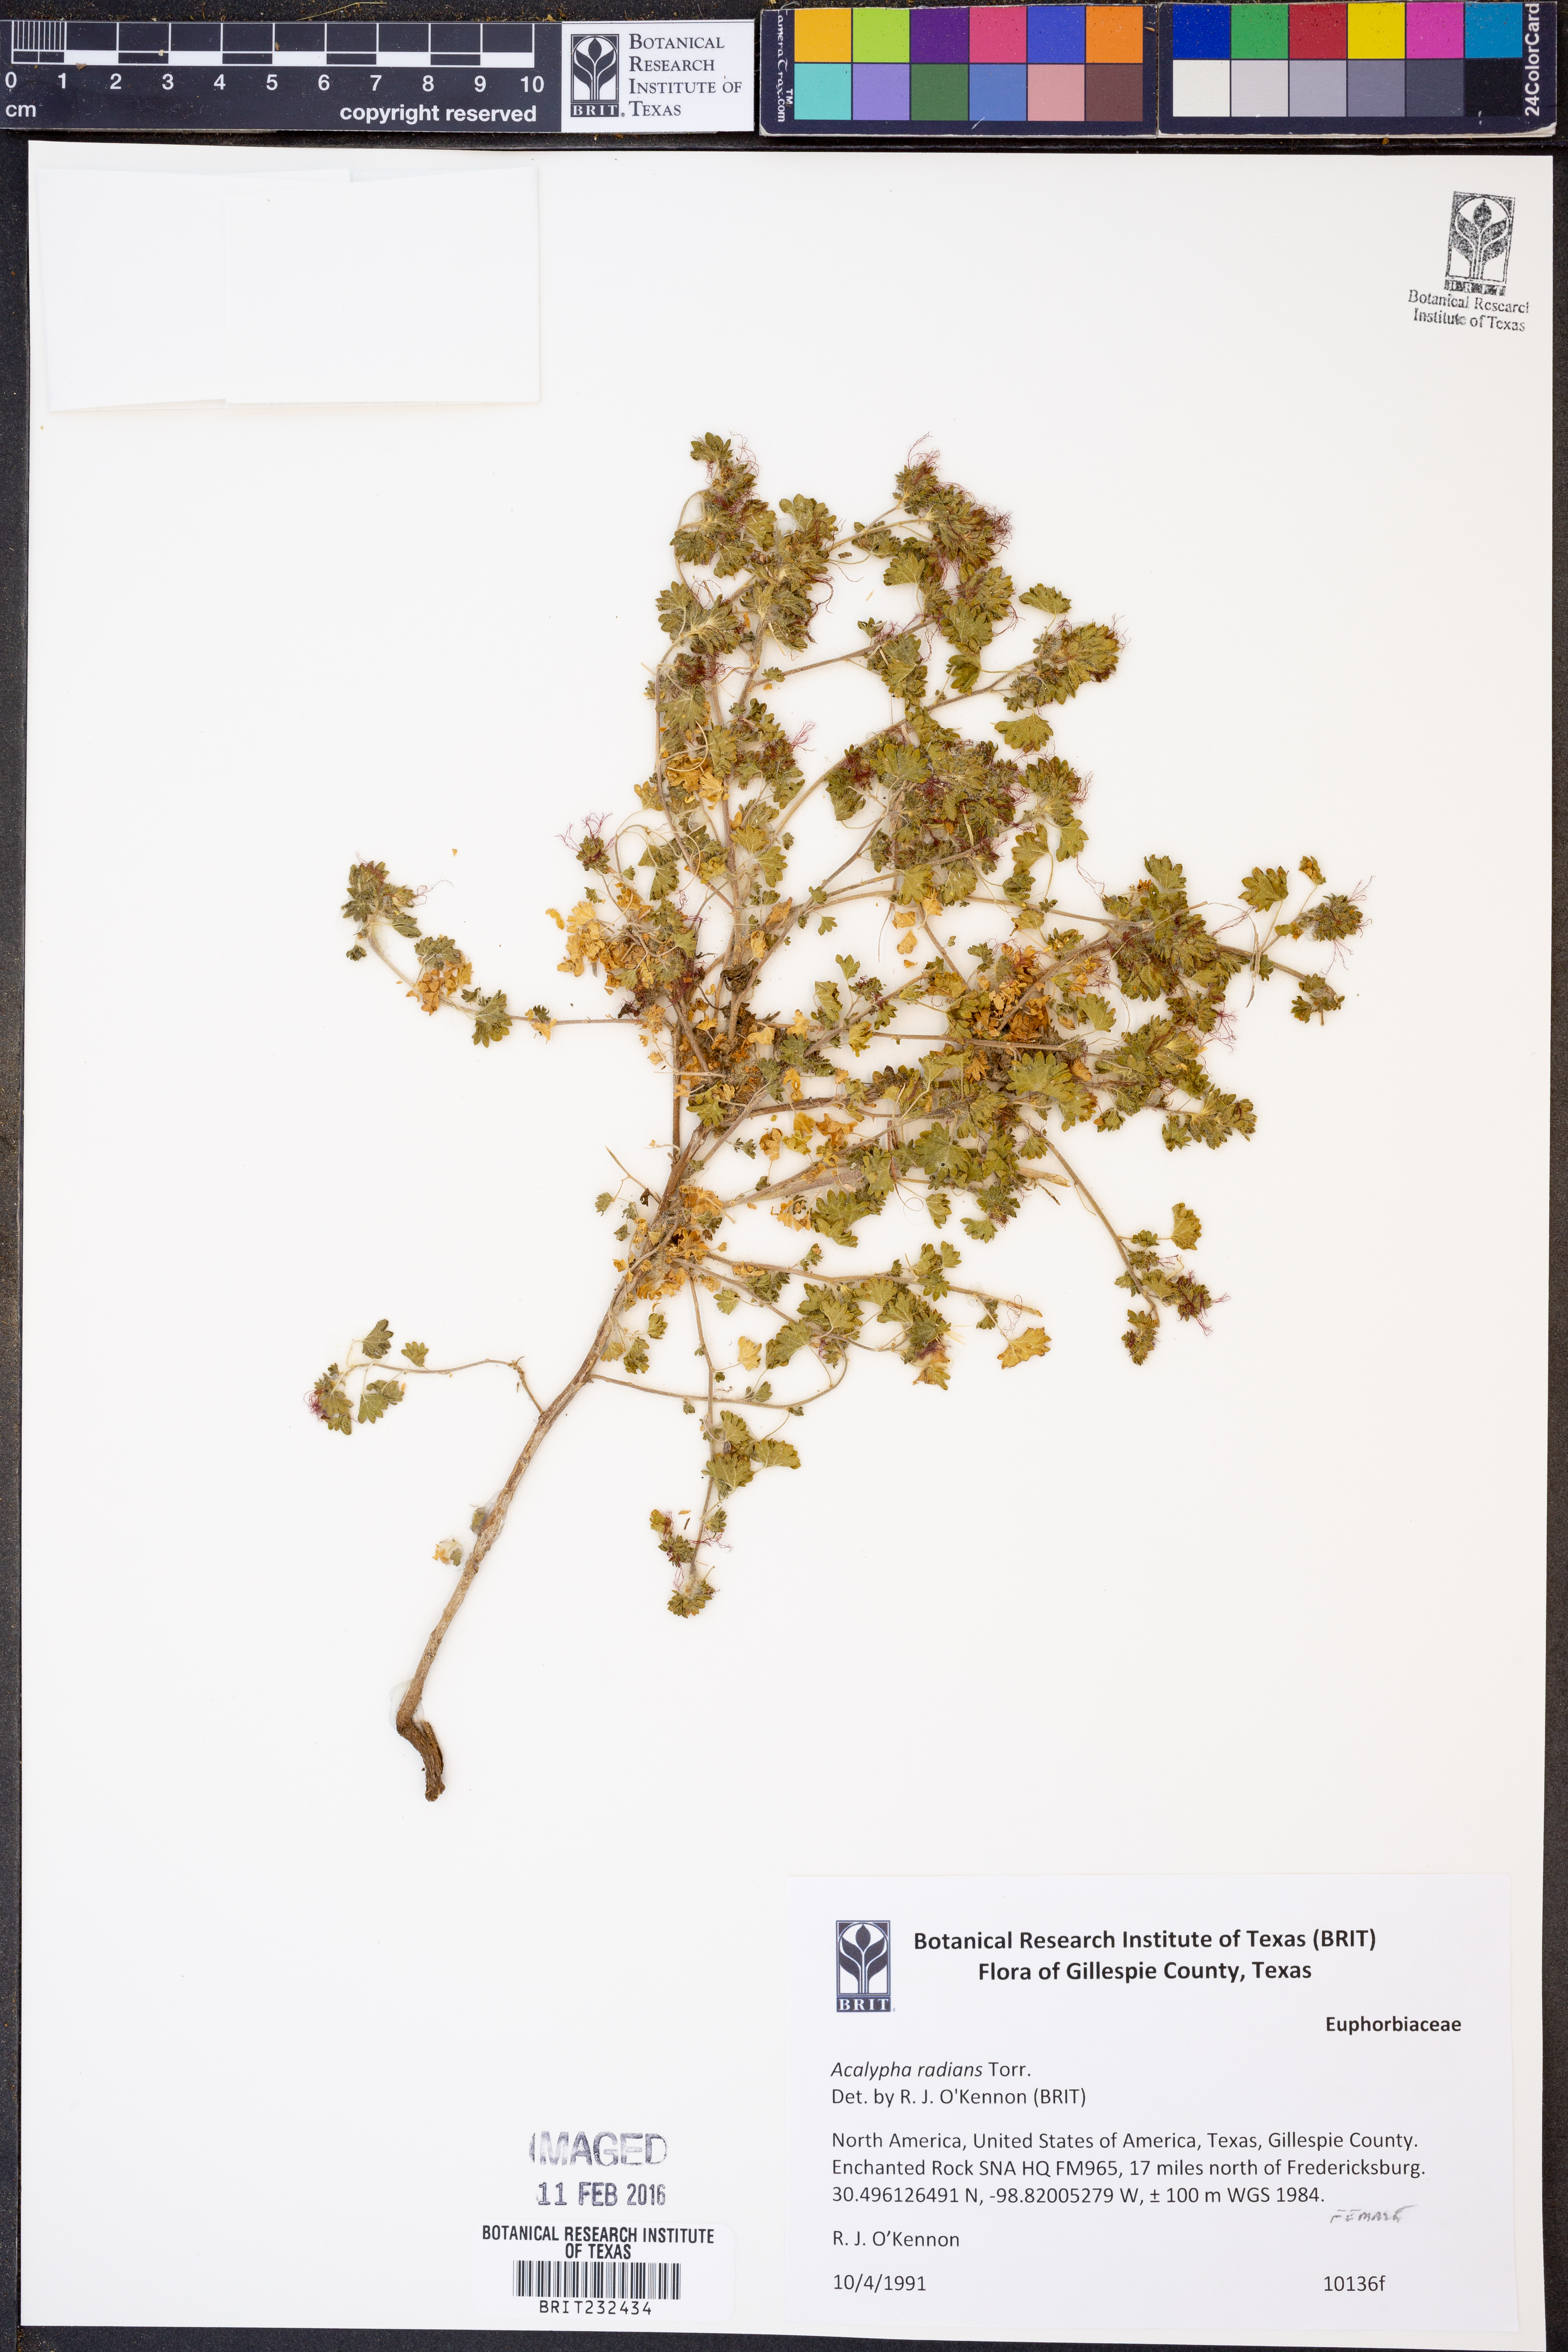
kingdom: Plantae
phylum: Tracheophyta
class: Magnoliopsida
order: Malpighiales
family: Euphorbiaceae
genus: Acalypha
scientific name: Acalypha radians
